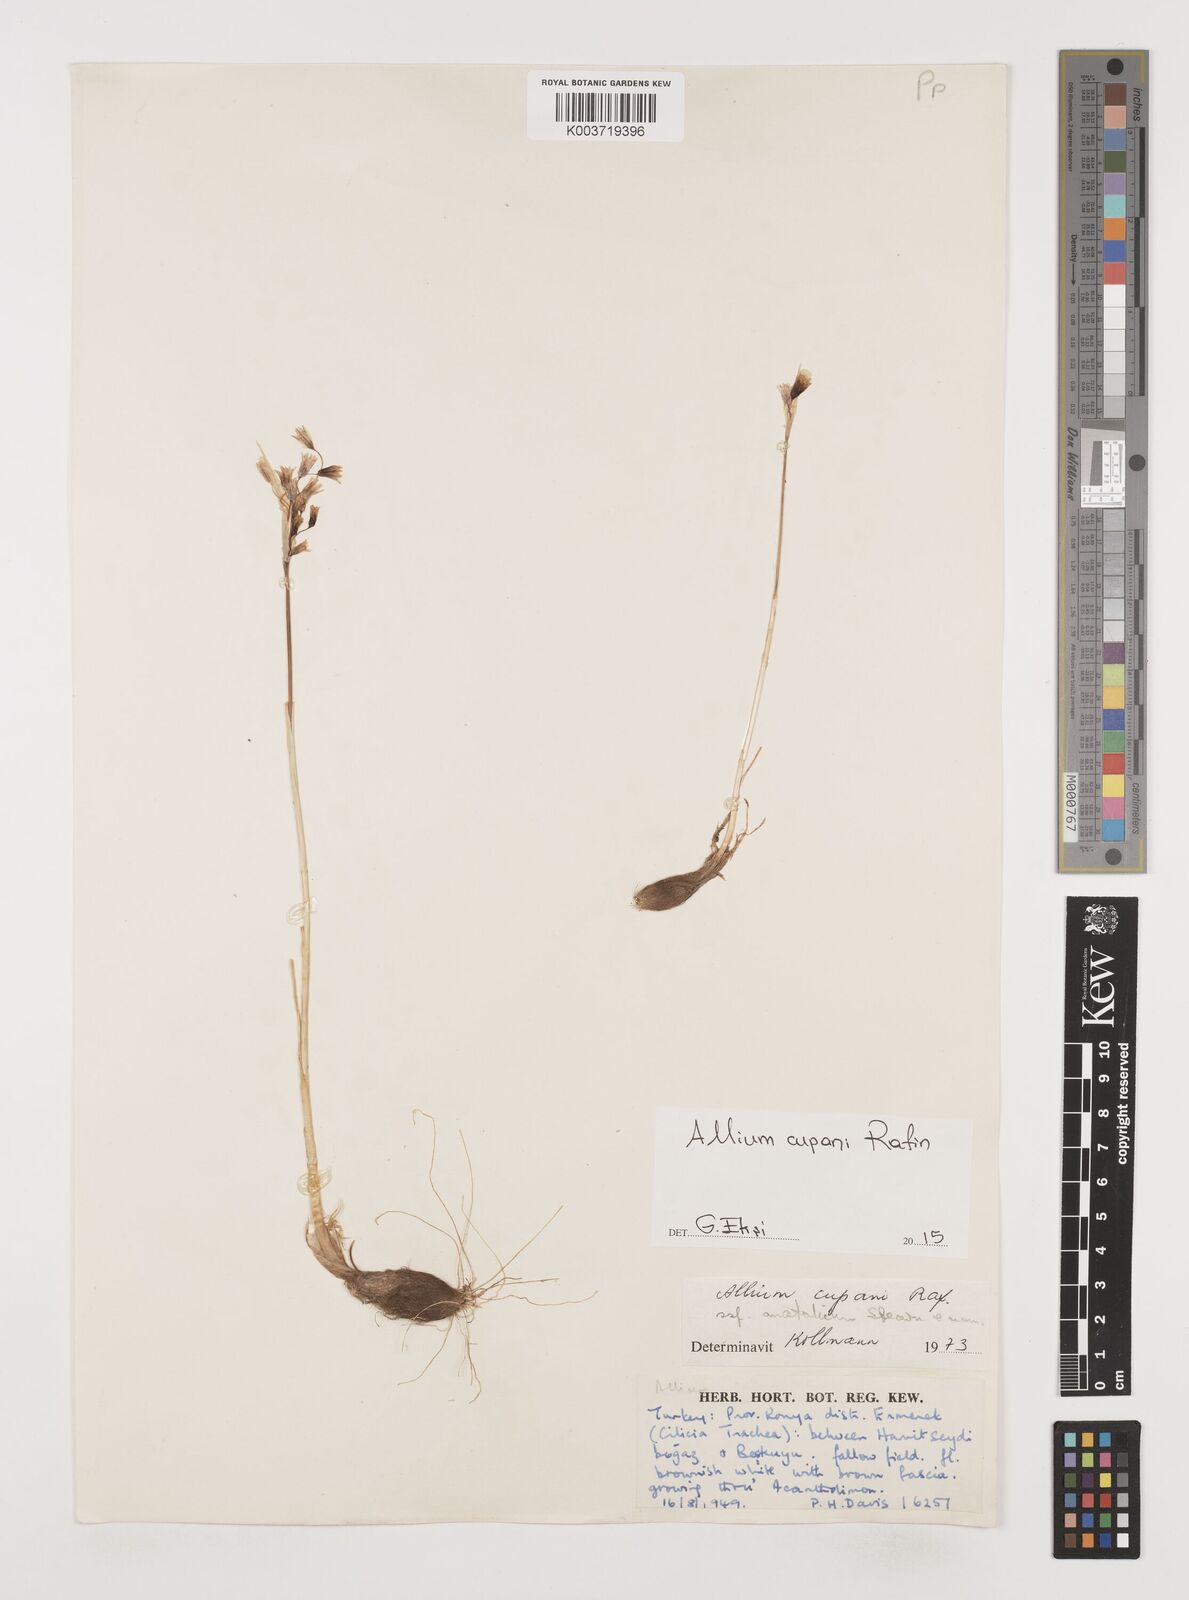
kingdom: Plantae
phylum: Tracheophyta
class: Liliopsida
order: Asparagales
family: Amaryllidaceae
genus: Allium
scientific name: Allium cupani
